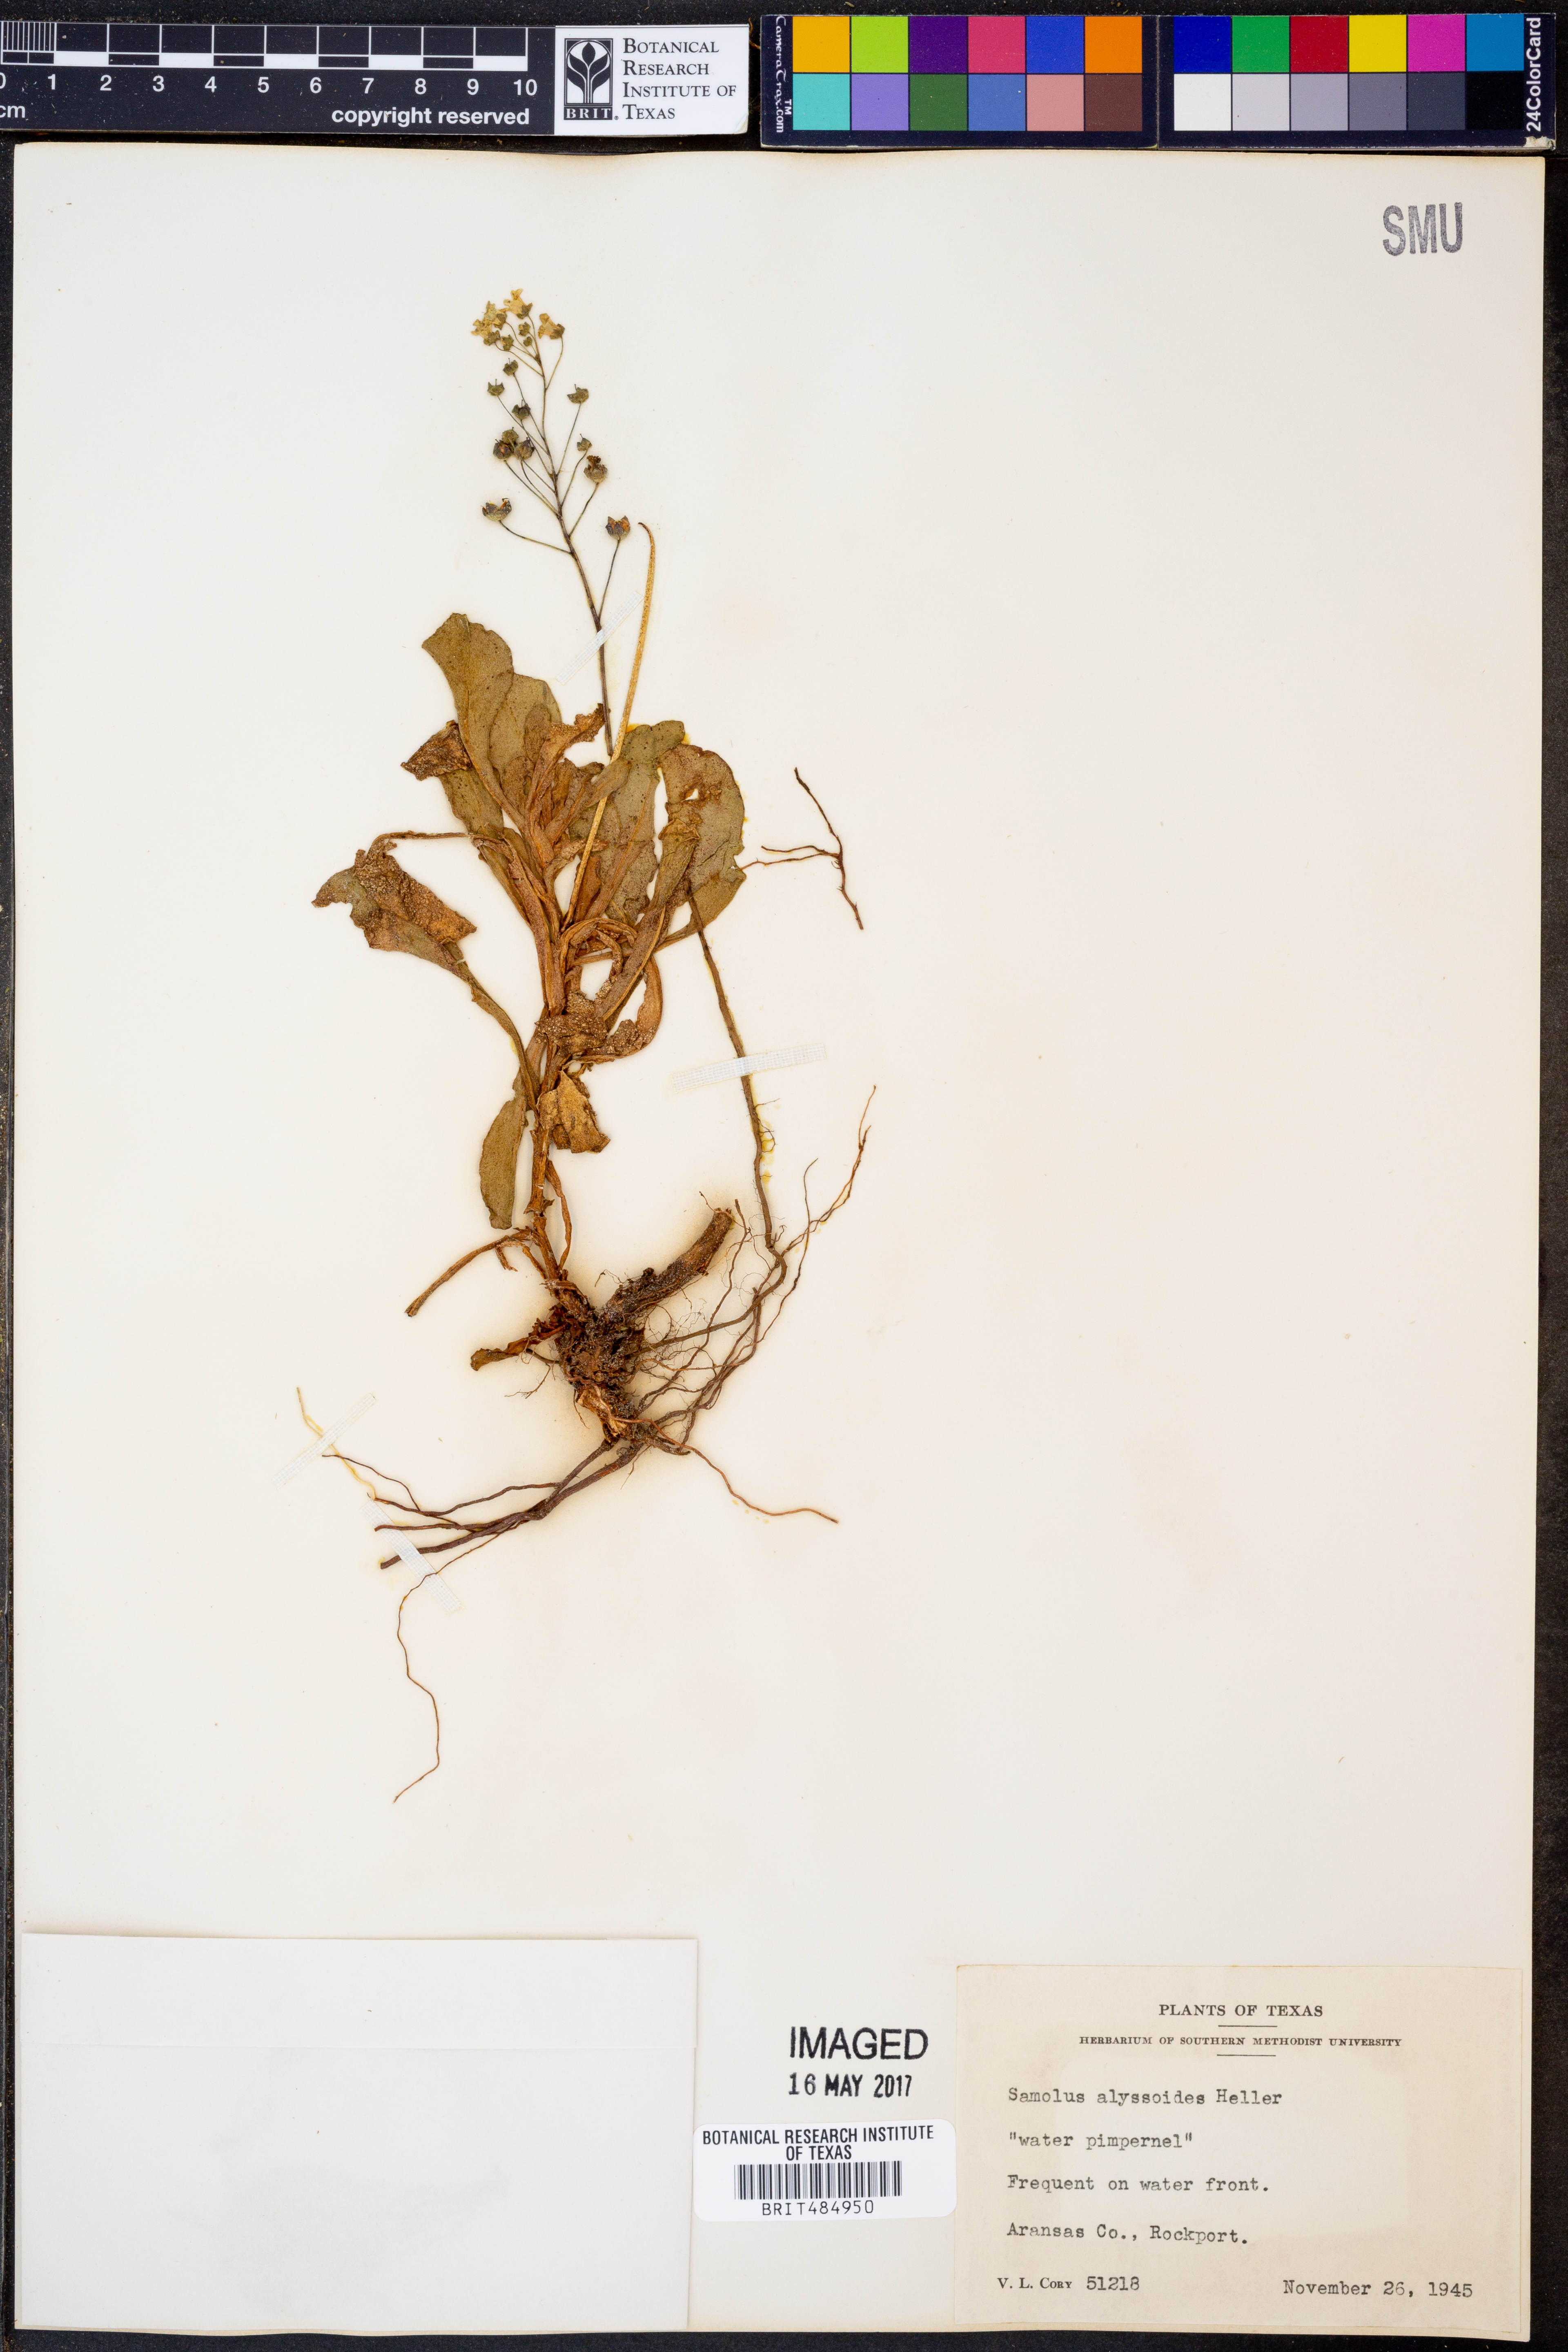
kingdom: Plantae
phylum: Tracheophyta
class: Magnoliopsida
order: Ericales
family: Primulaceae
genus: Samolus
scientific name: Samolus ebracteatus
